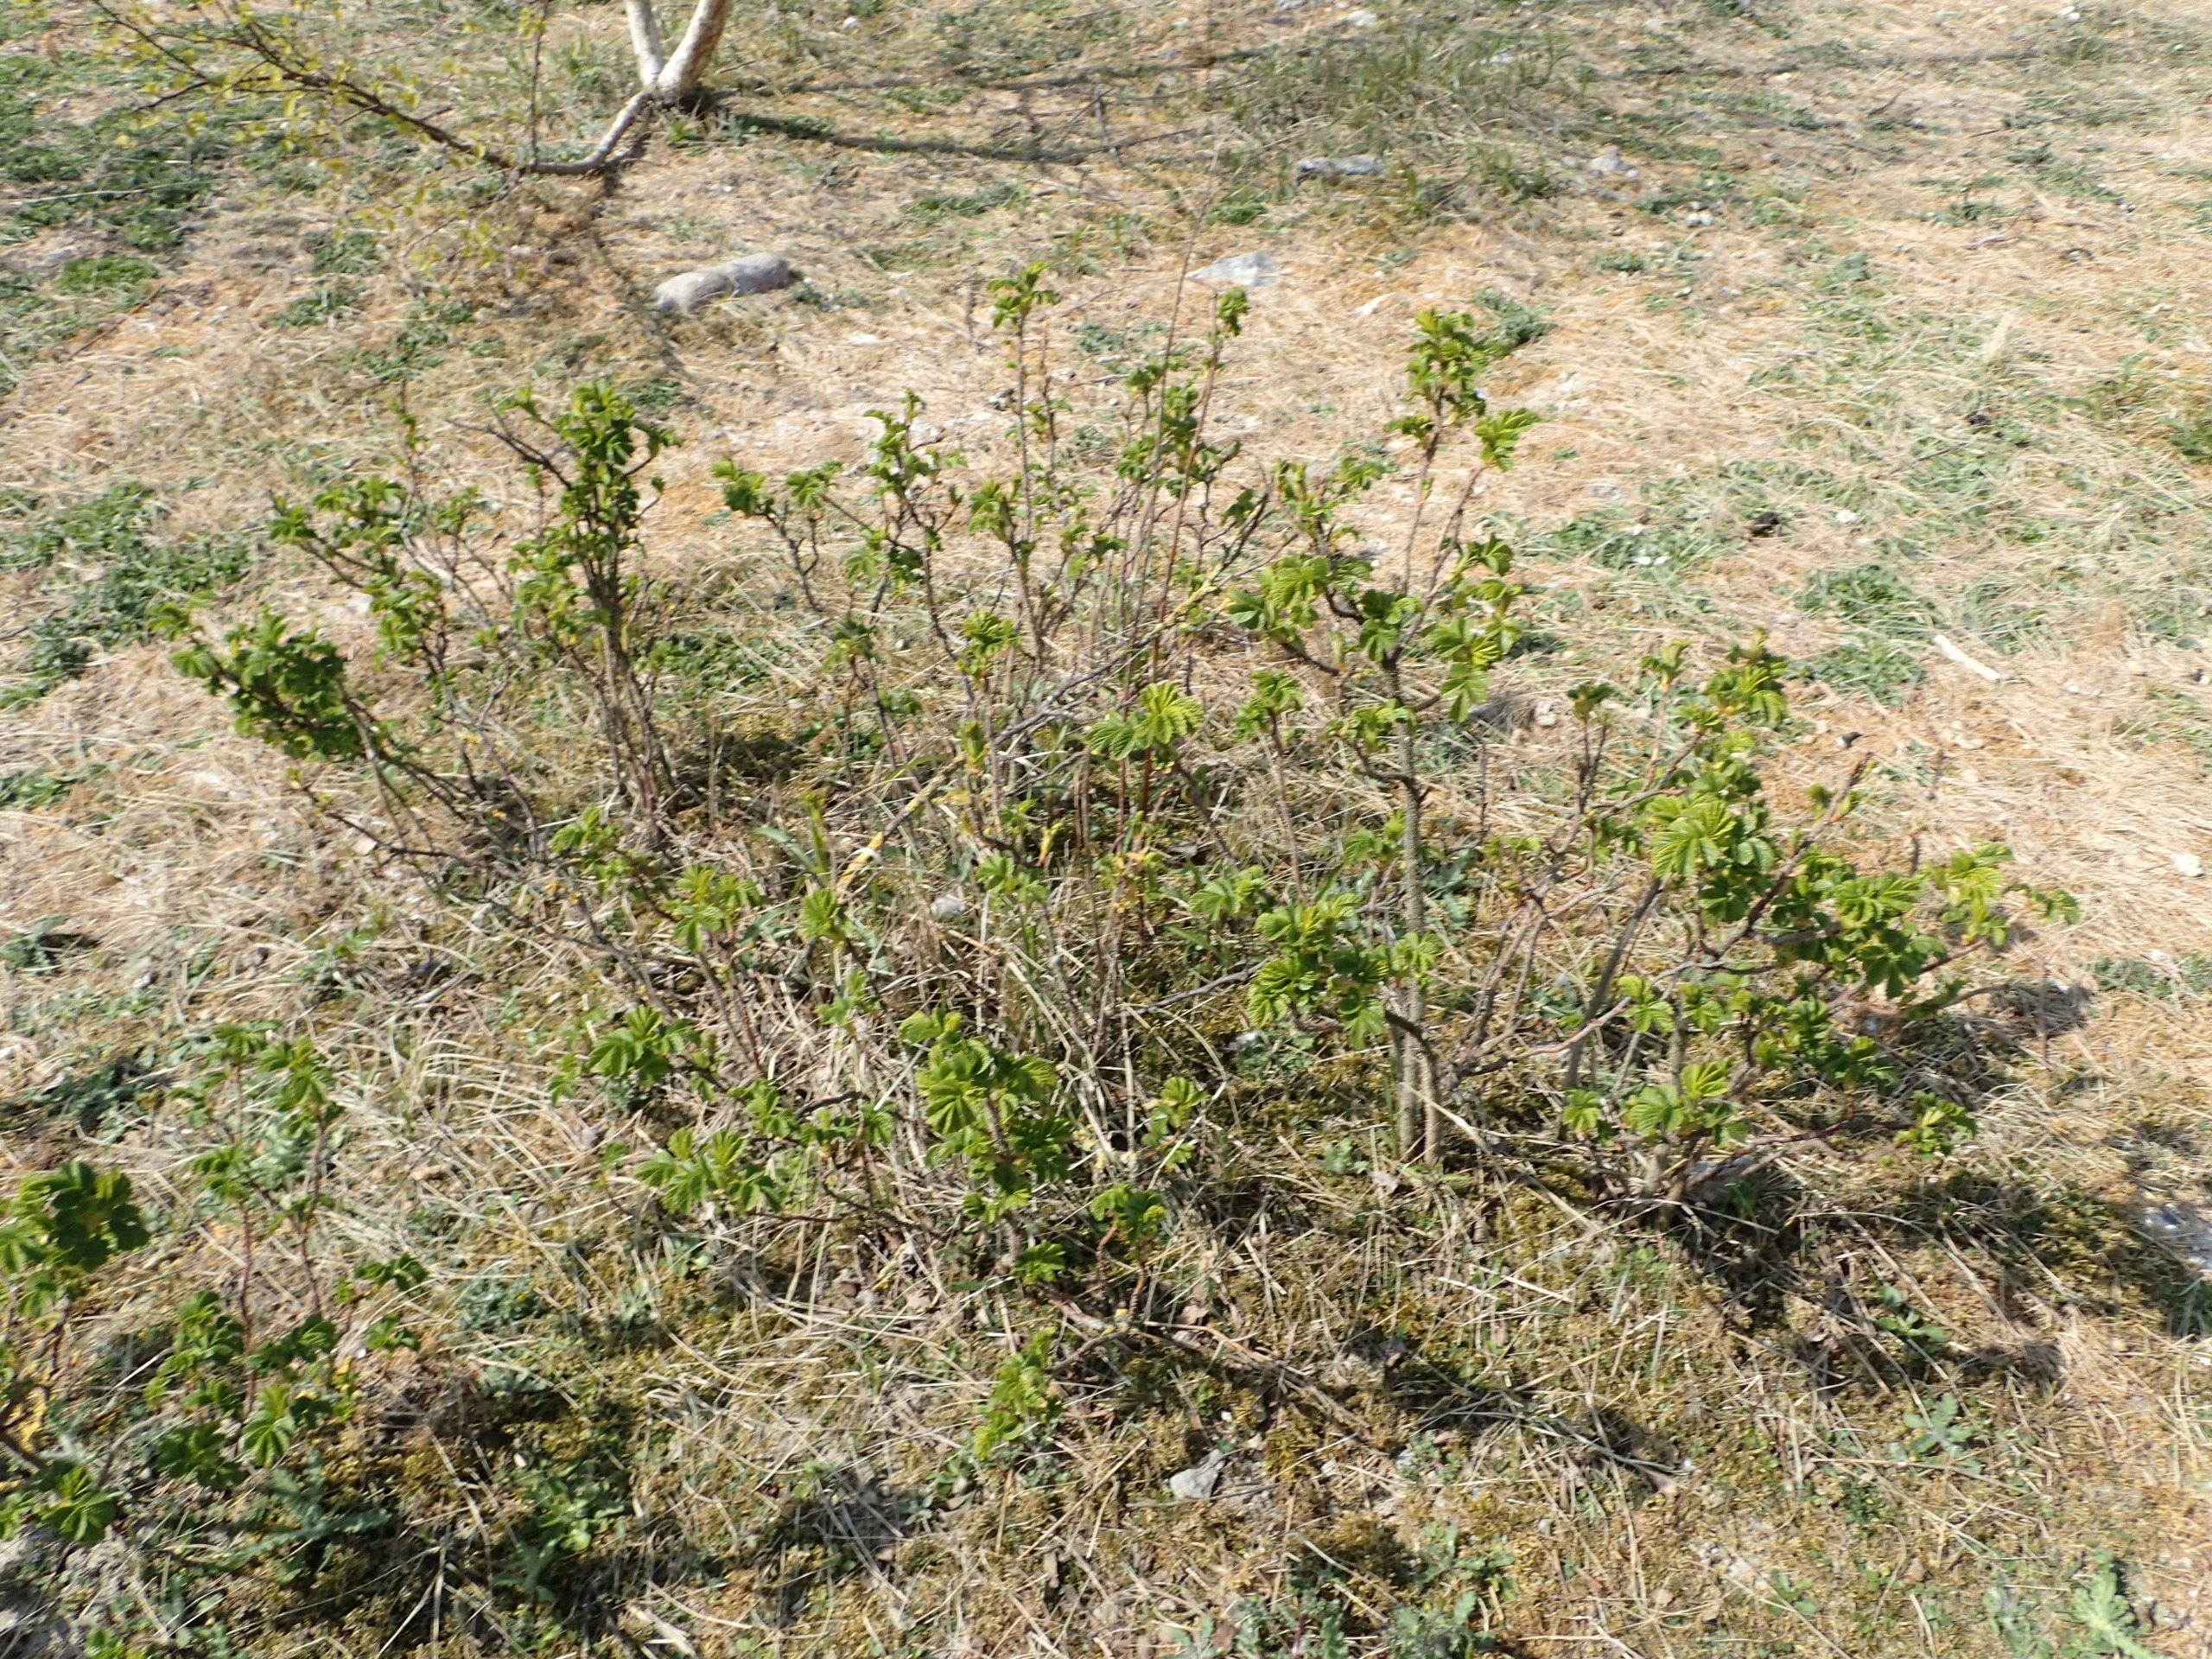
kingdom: Plantae
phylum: Tracheophyta
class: Magnoliopsida
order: Rosales
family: Rosaceae
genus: Rosa
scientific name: Rosa rugosa
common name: Rynket rose
